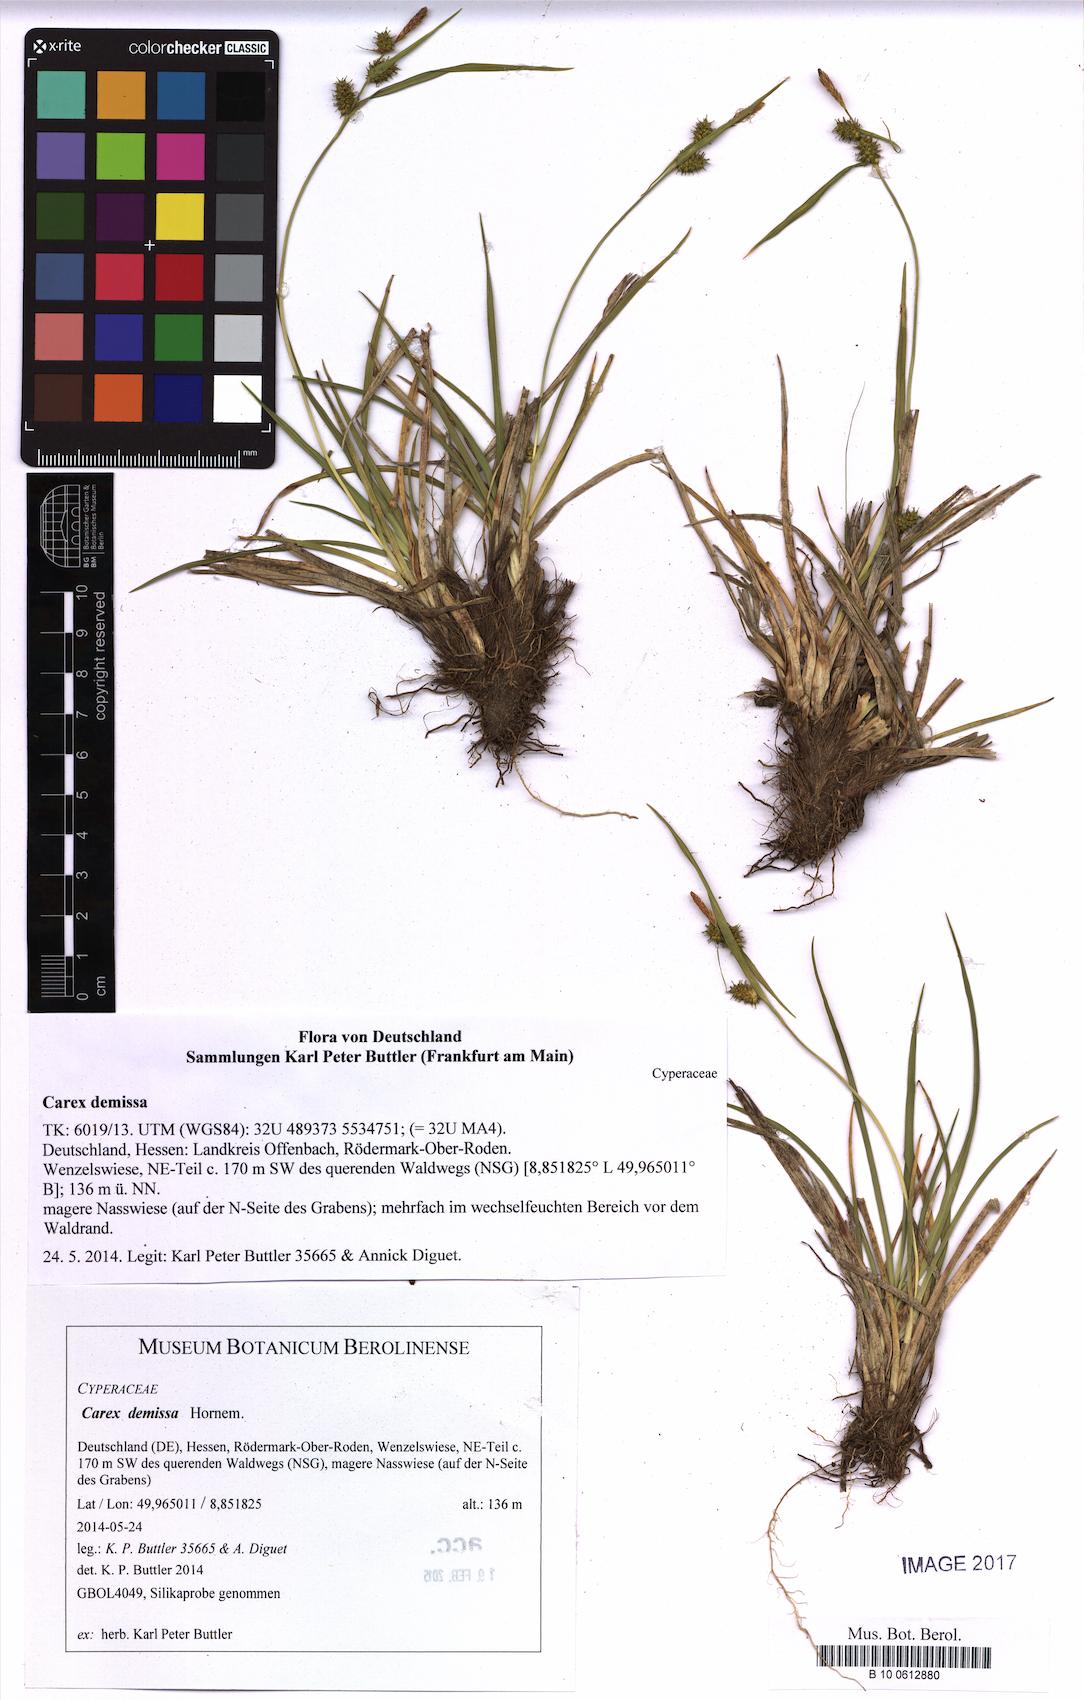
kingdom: Plantae
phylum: Tracheophyta
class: Liliopsida
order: Poales
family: Cyperaceae
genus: Carex
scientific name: Carex demissa
